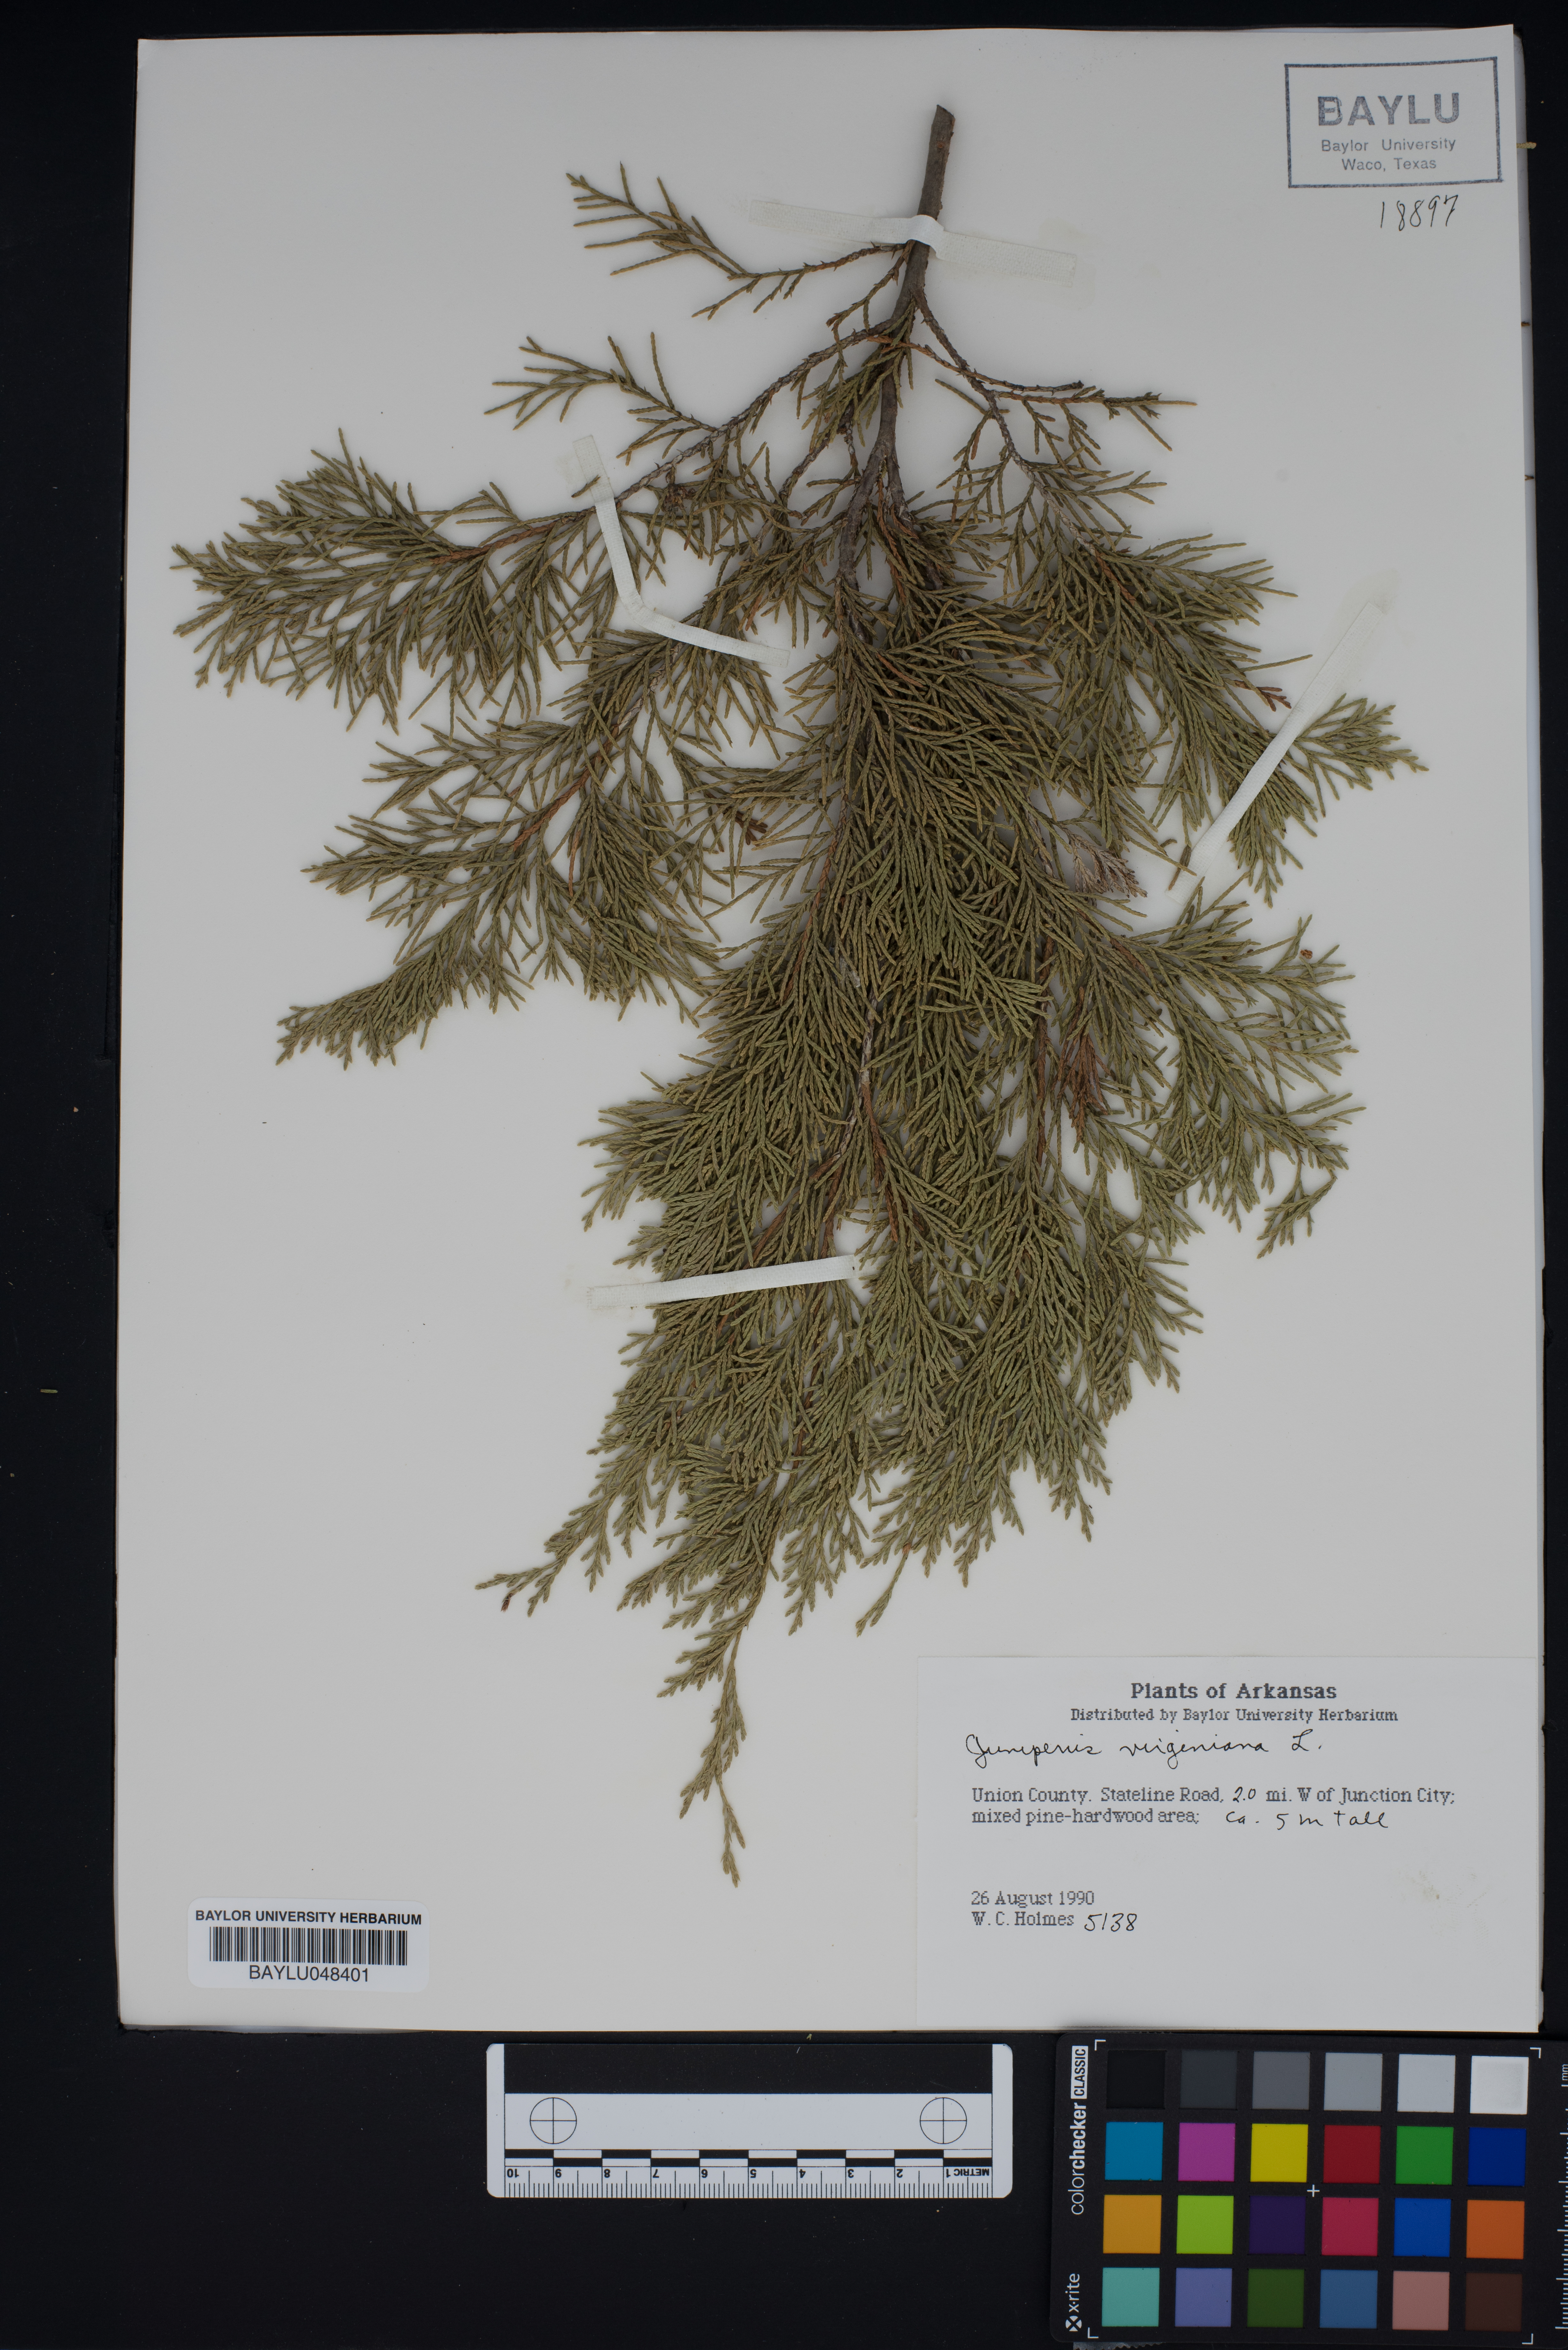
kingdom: Plantae
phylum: Tracheophyta
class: Pinopsida
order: Pinales
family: Cupressaceae
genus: Juniperus
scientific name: Juniperus virginiana
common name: Red juniper
